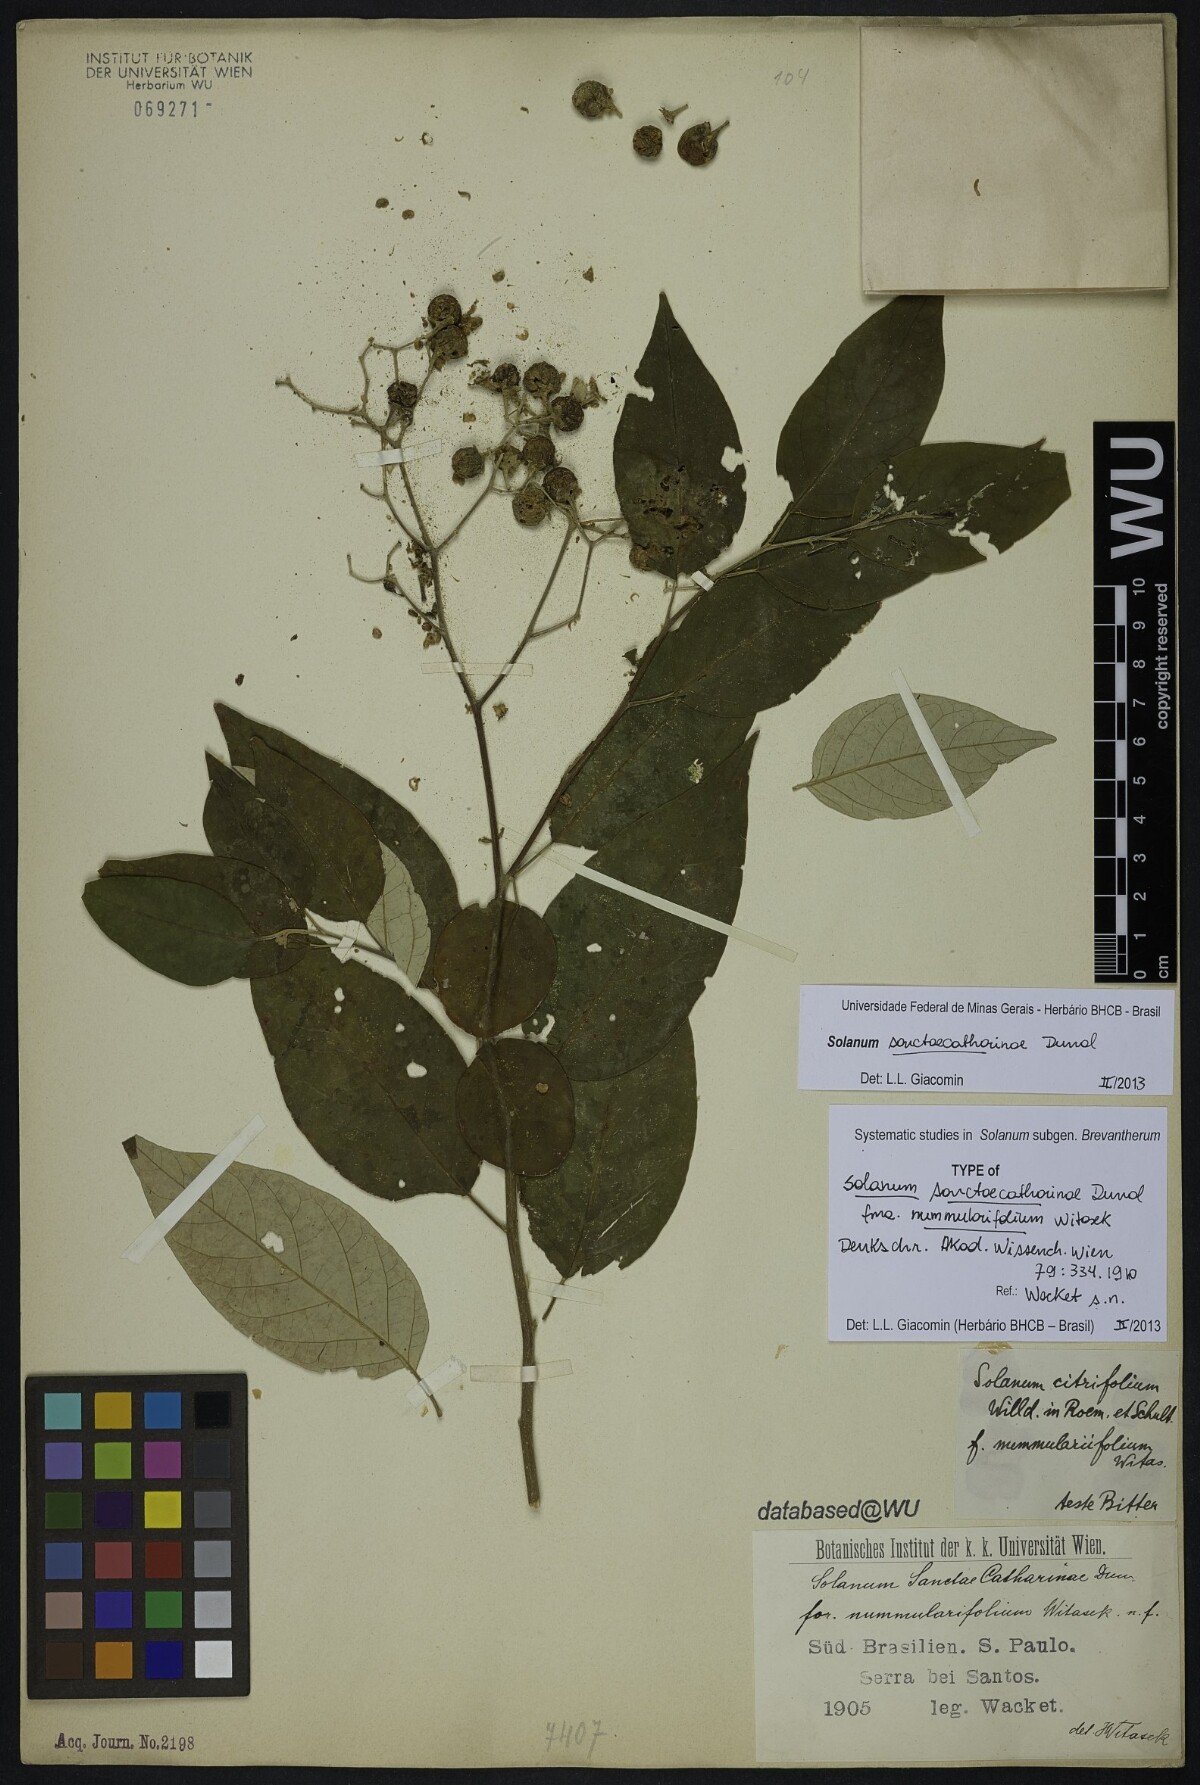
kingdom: Plantae
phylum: Tracheophyta
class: Magnoliopsida
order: Solanales
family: Solanaceae
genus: Solanum
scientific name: Solanum sanctae-catharinae
